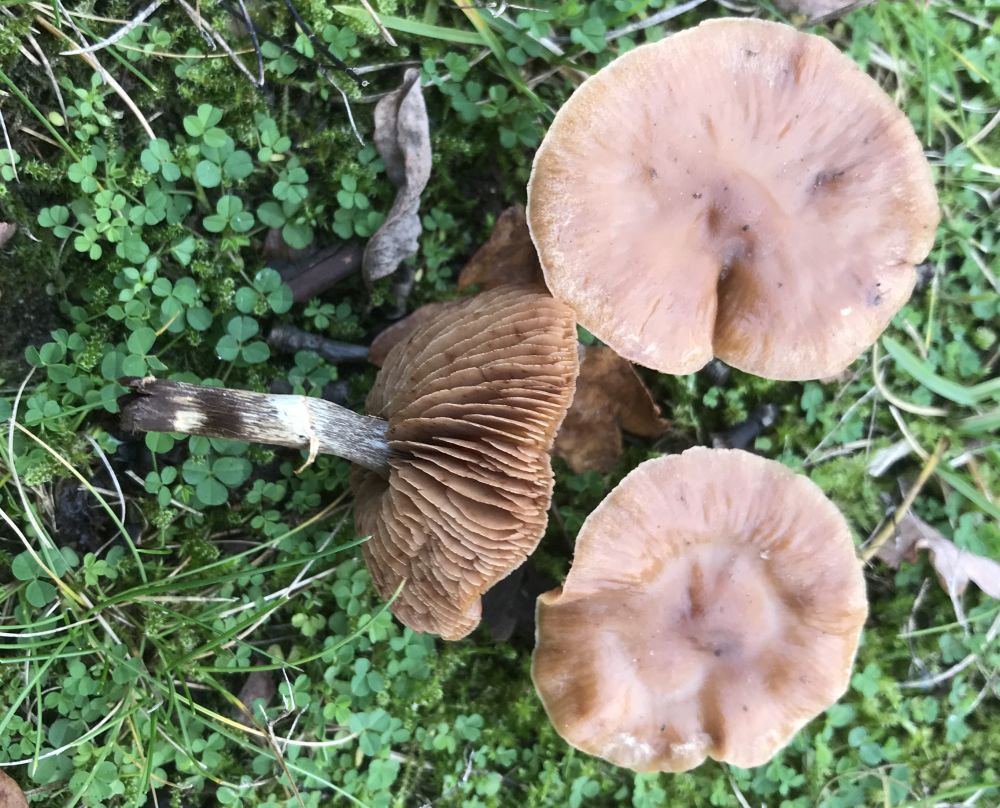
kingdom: Fungi
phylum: Basidiomycota
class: Agaricomycetes
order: Agaricales
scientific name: Agaricales
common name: champignonordenen
